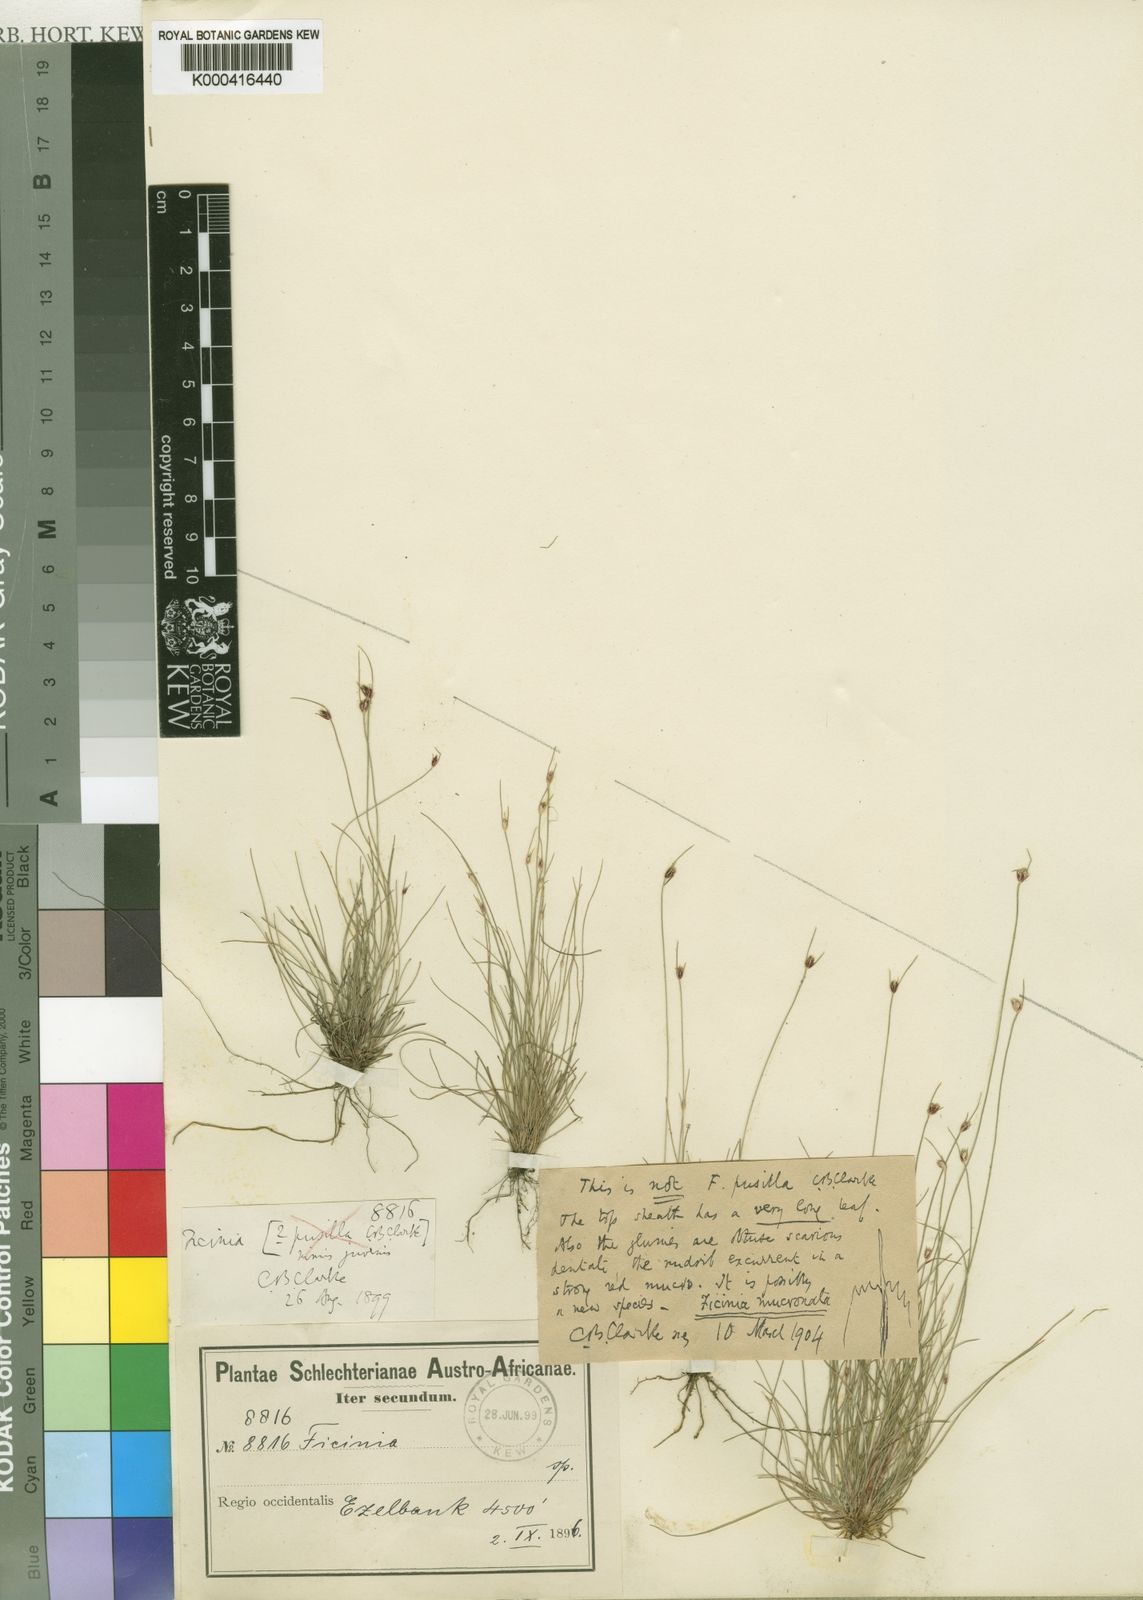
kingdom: Plantae
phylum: Tracheophyta
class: Liliopsida
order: Poales
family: Cyperaceae
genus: Ficinia
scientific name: Ficinia mucronata
